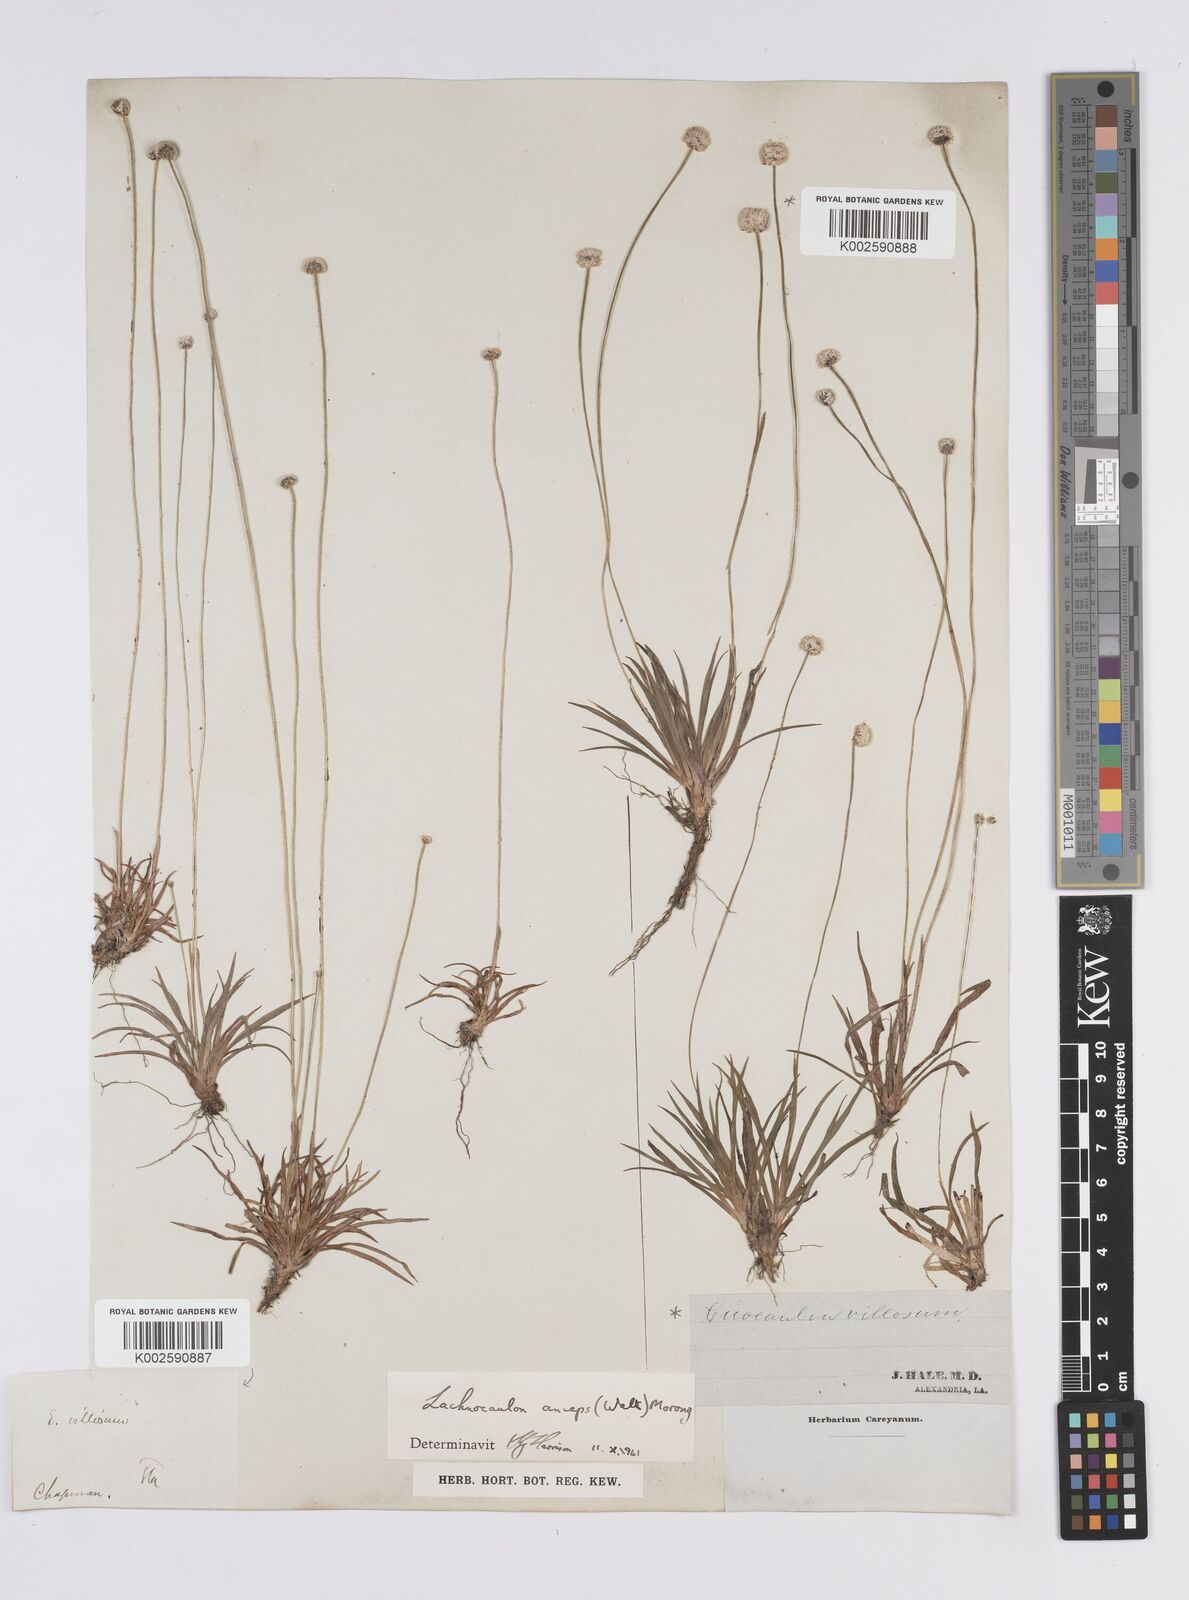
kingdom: Plantae
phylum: Tracheophyta
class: Liliopsida
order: Poales
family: Eriocaulaceae
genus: Paepalanthus
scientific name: Paepalanthus anceps
